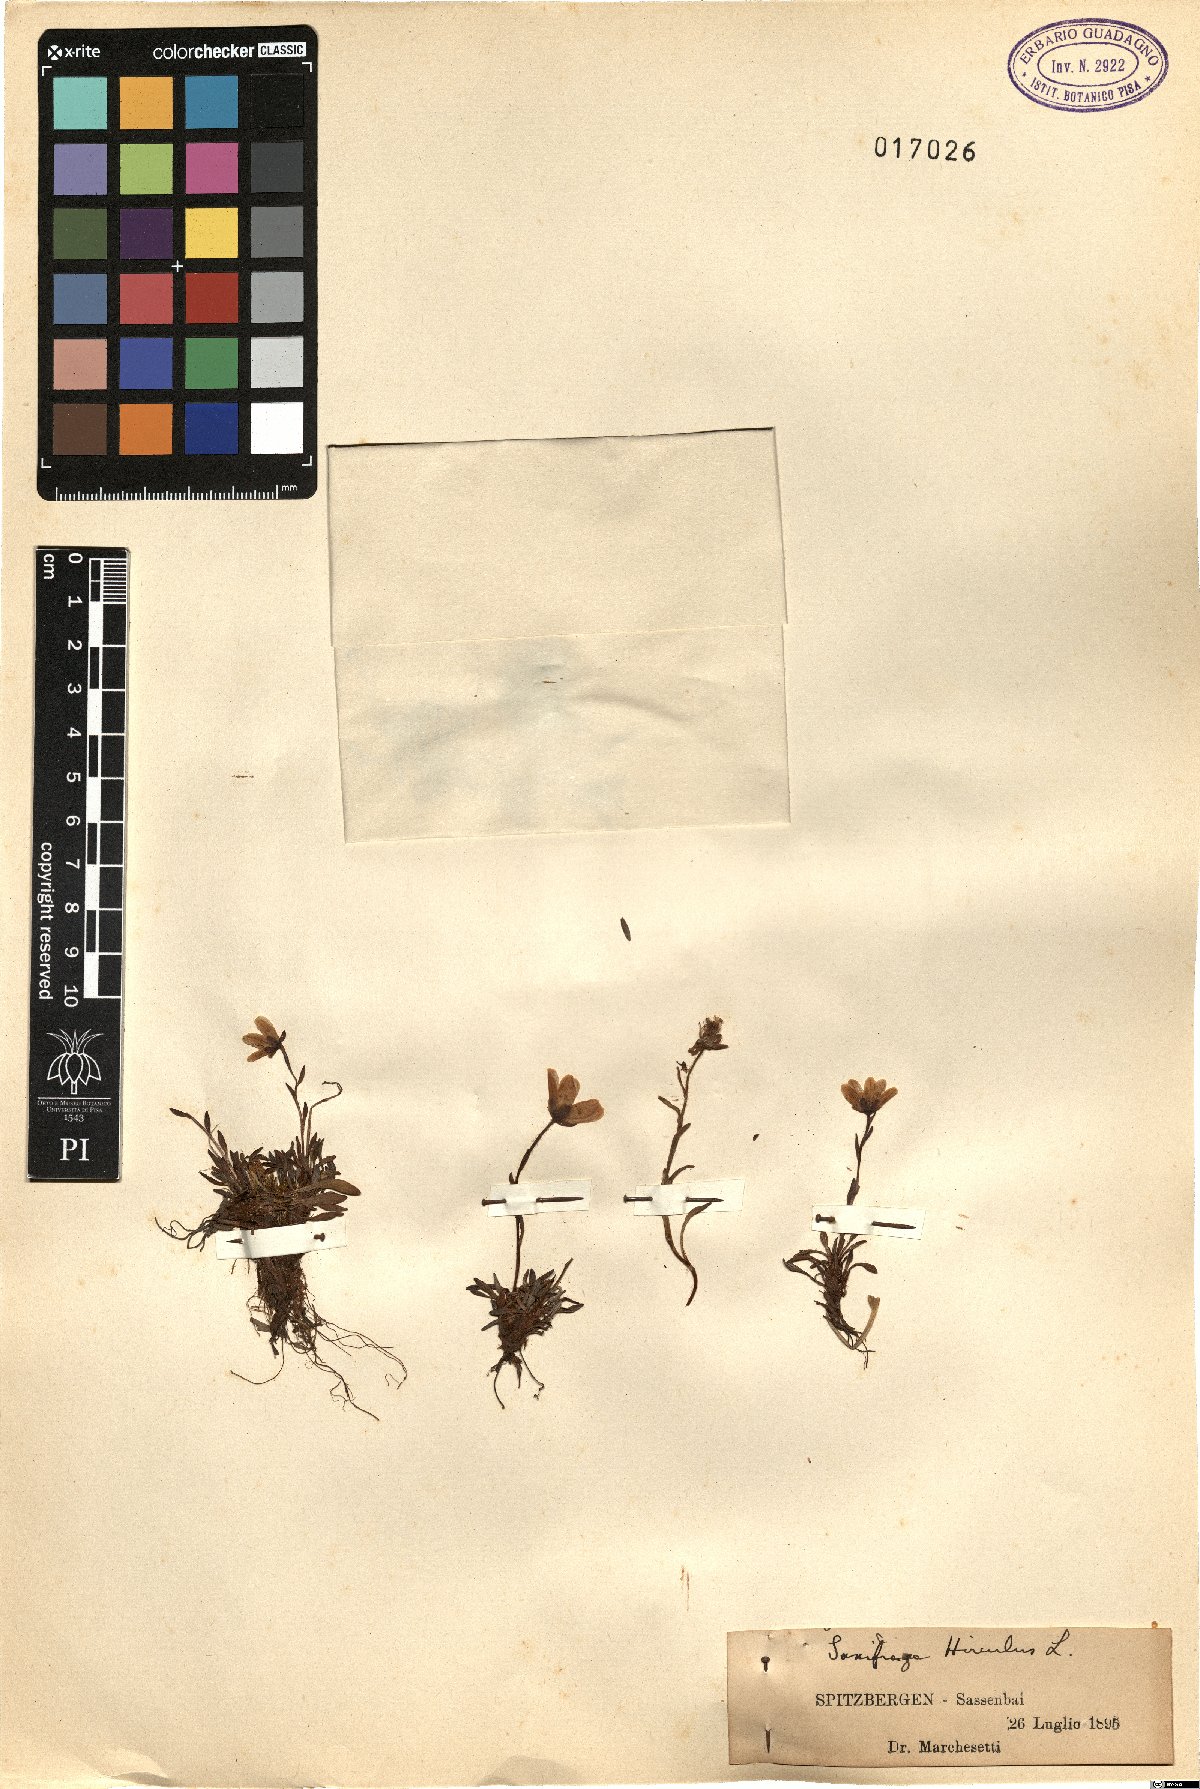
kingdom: Plantae
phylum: Tracheophyta
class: Magnoliopsida
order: Saxifragales
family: Saxifragaceae
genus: Saxifraga
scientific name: Saxifraga hirculus
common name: Yellow marsh saxifrage
